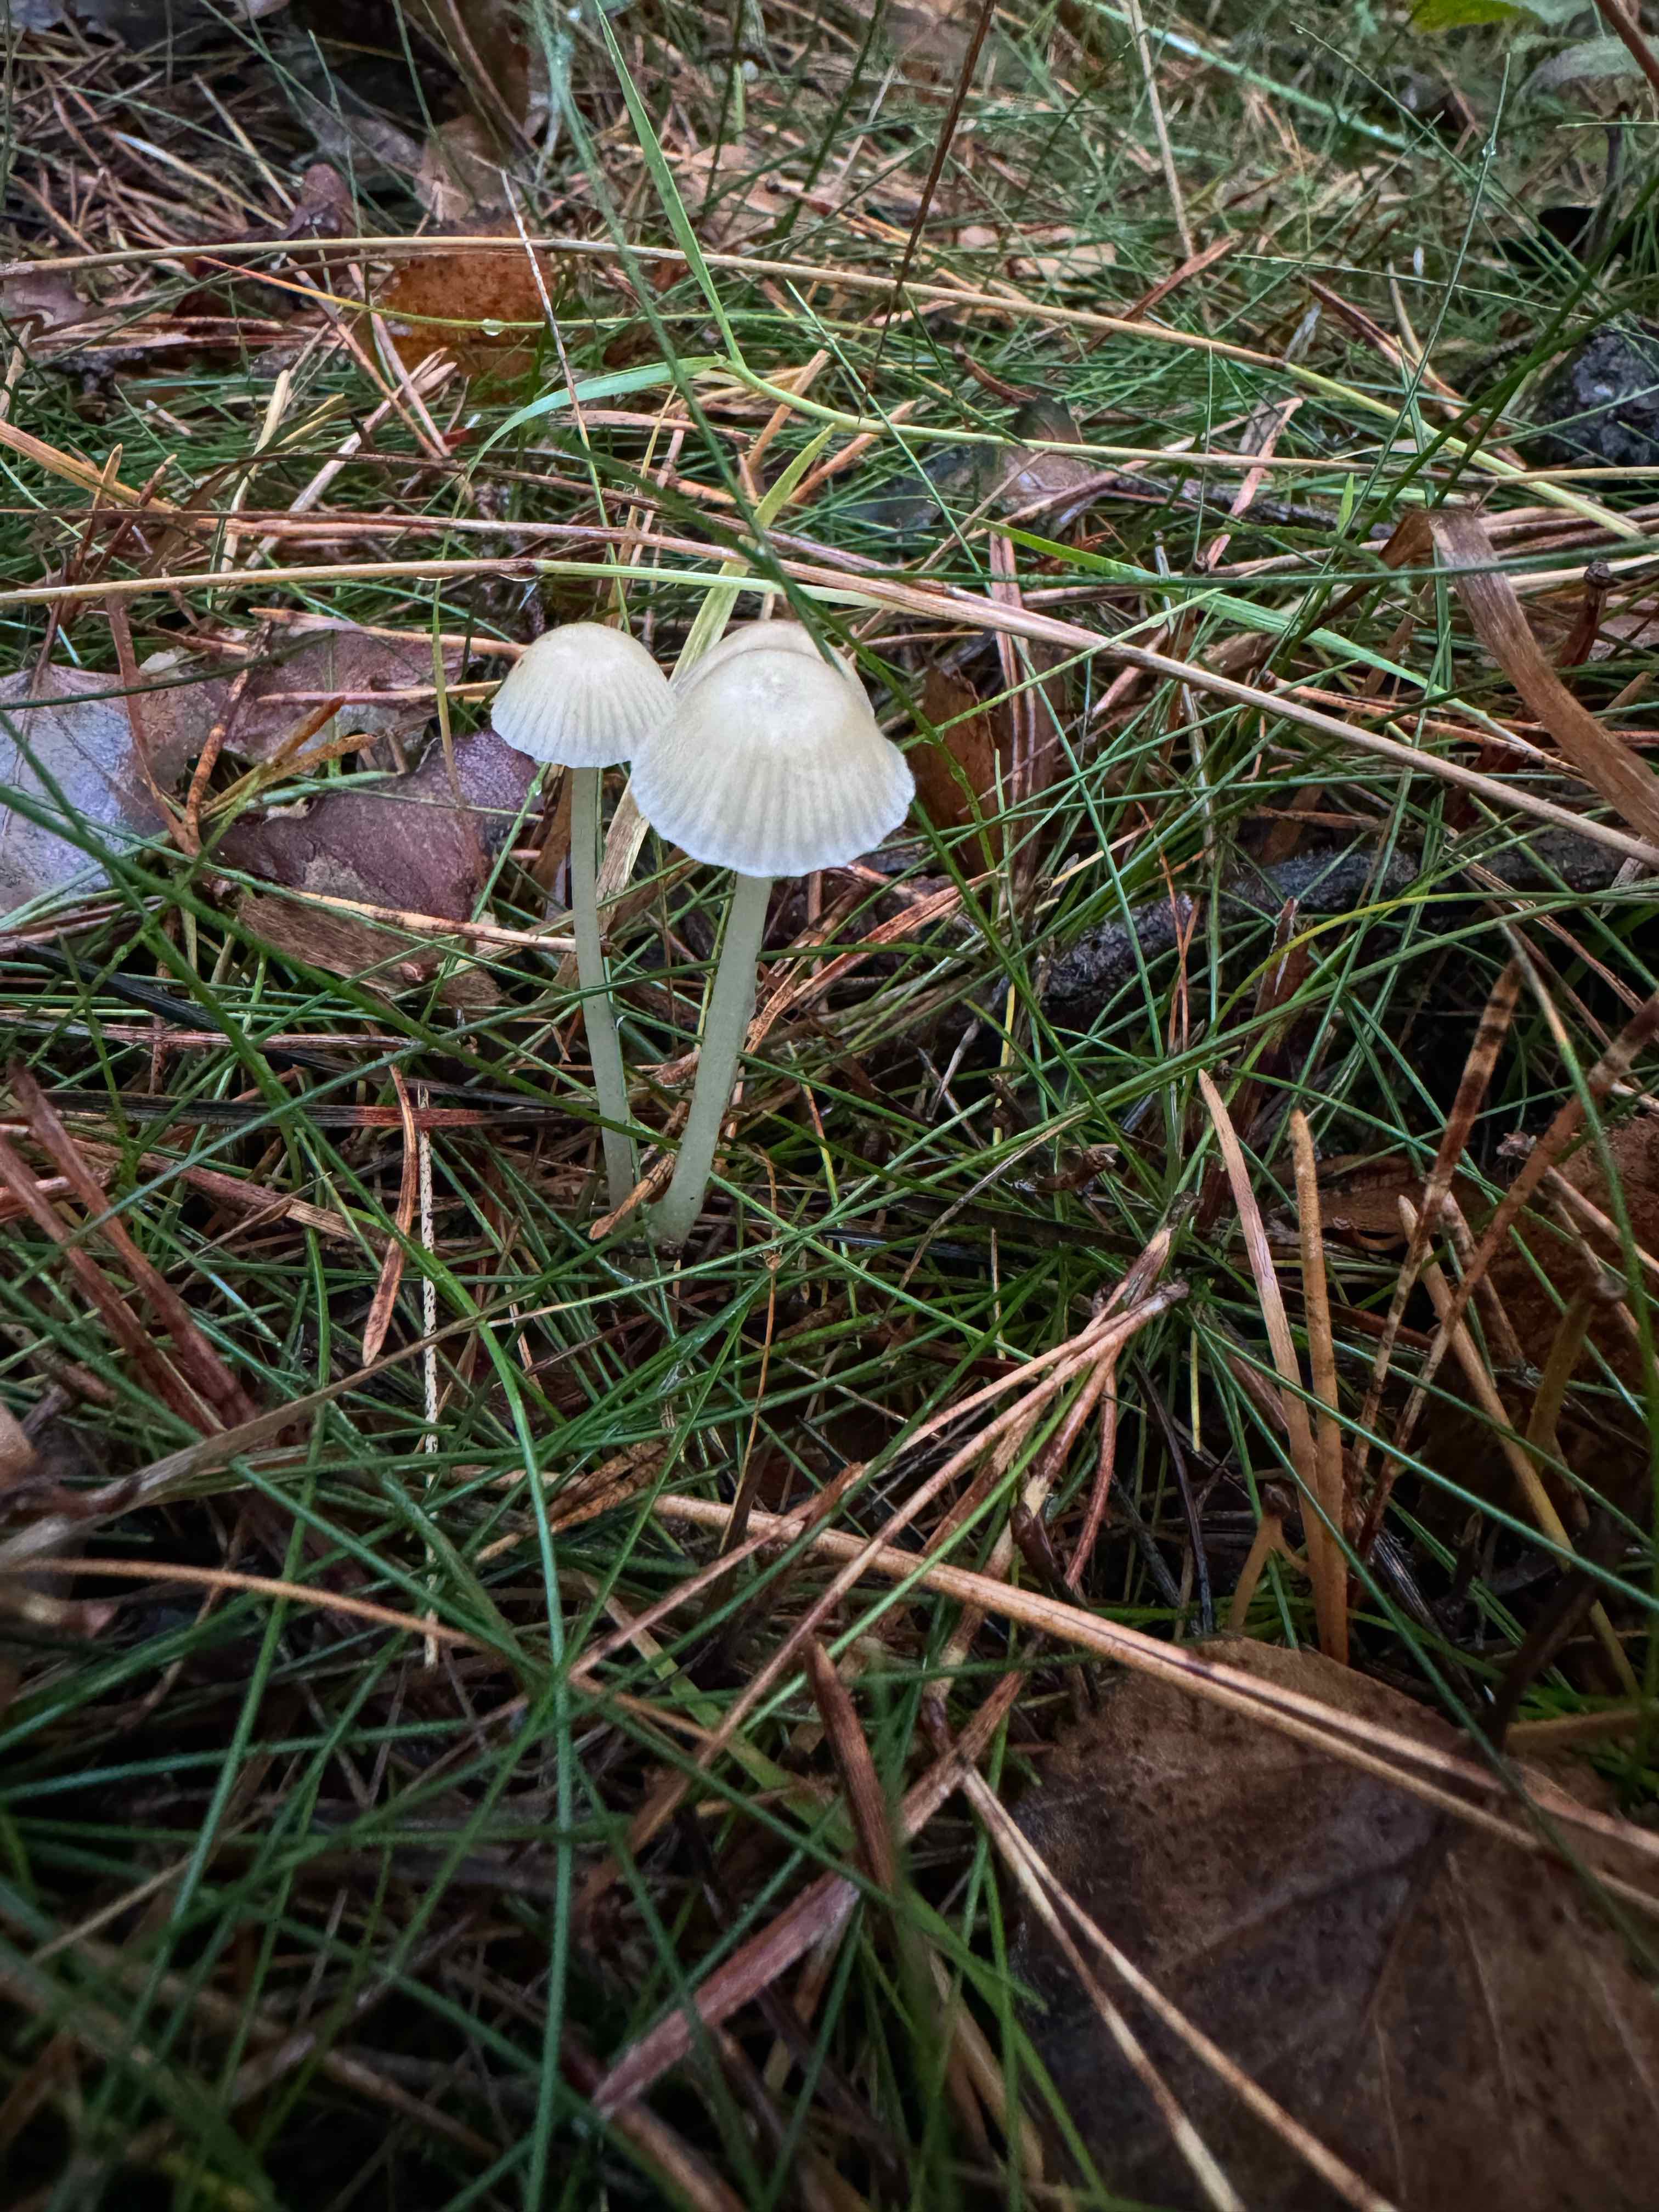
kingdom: Fungi
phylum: Basidiomycota
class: Agaricomycetes
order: Agaricales
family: Mycenaceae
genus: Mycena
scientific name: Mycena epipterygia
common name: gulstokket huesvamp
